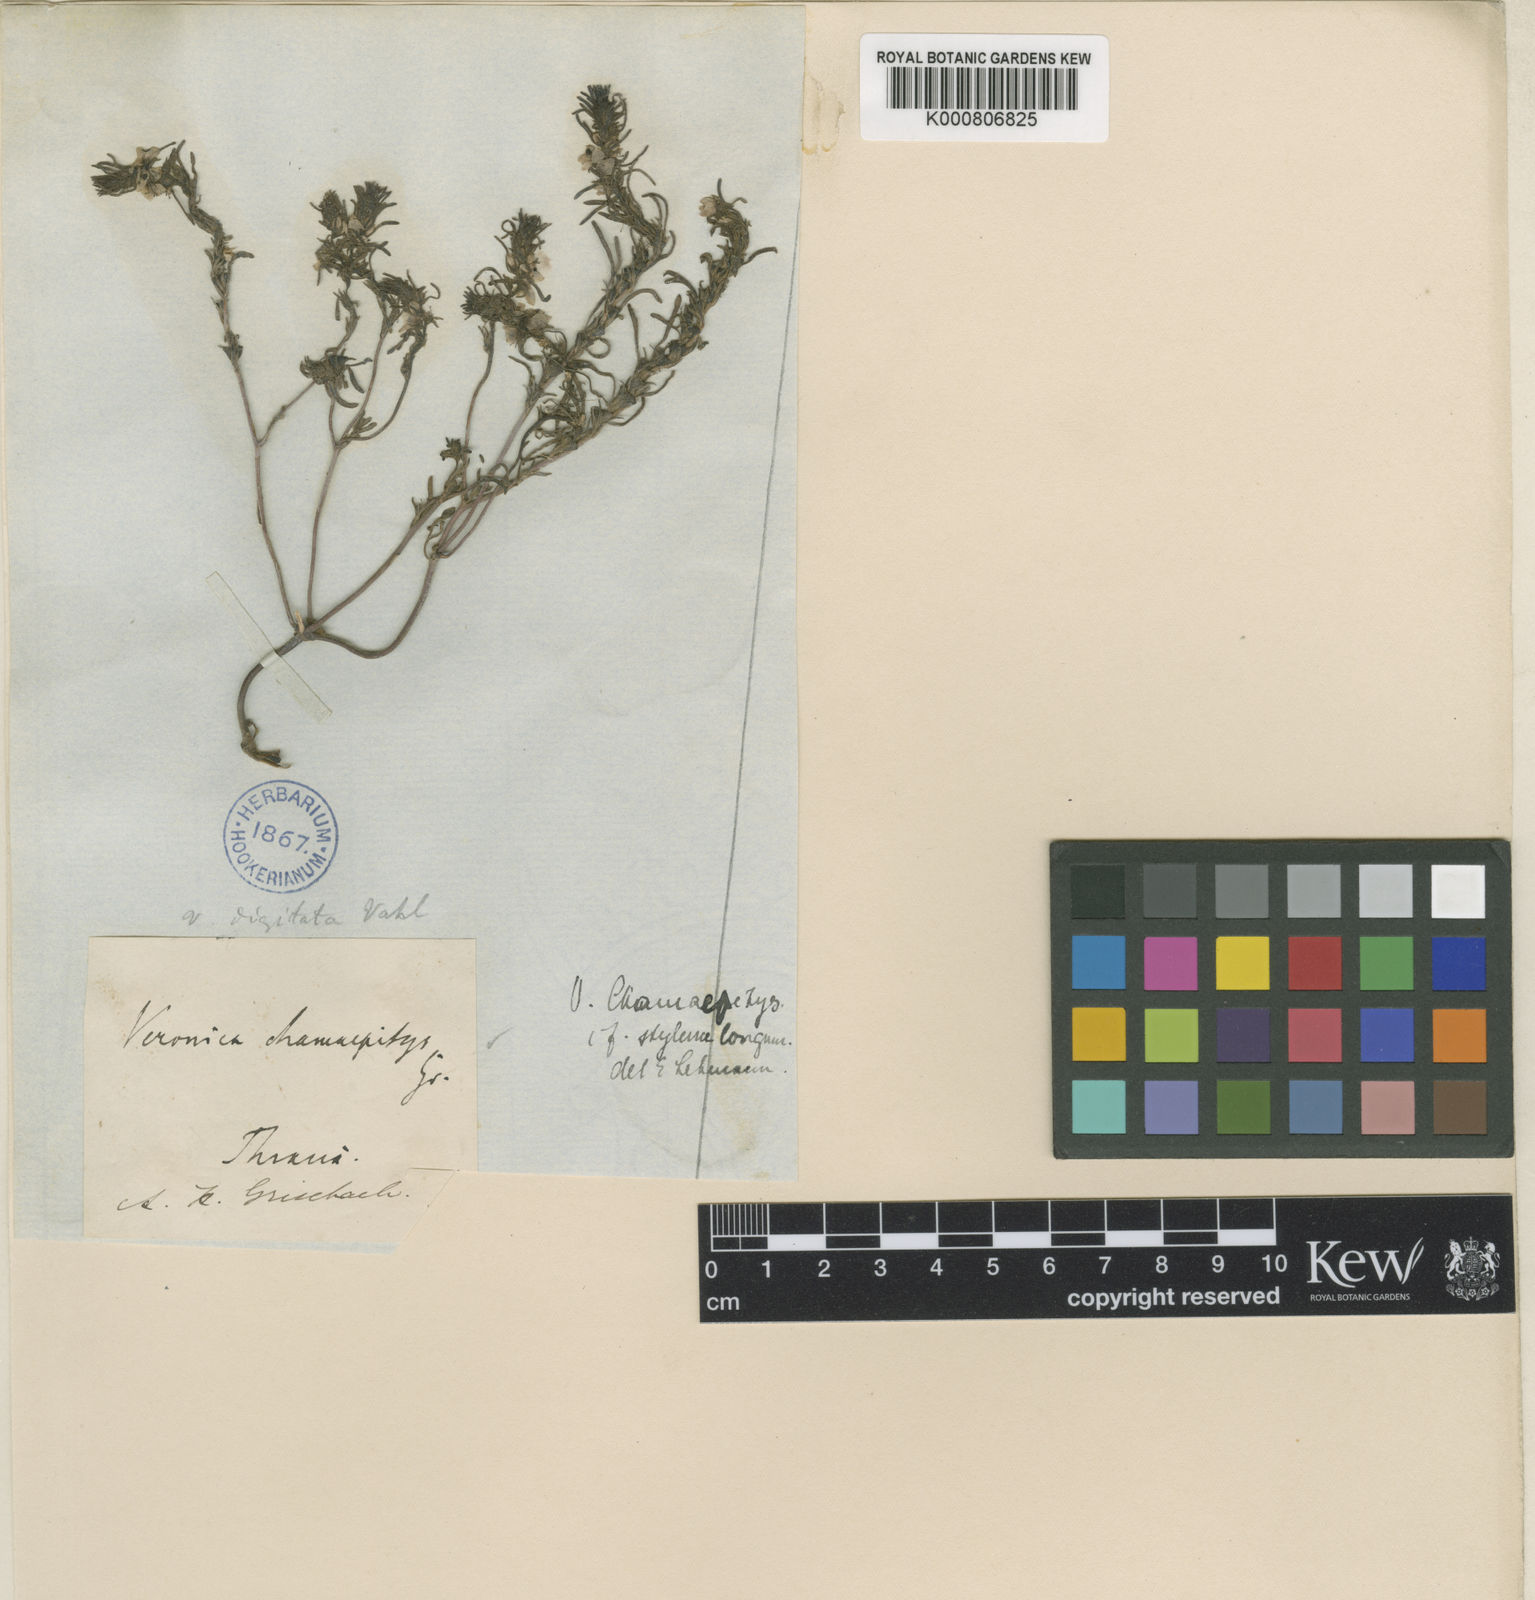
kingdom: Plantae
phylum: Tracheophyta
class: Magnoliopsida
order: Lamiales
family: Plantaginaceae
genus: Veronica
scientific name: Veronica grisebachii
